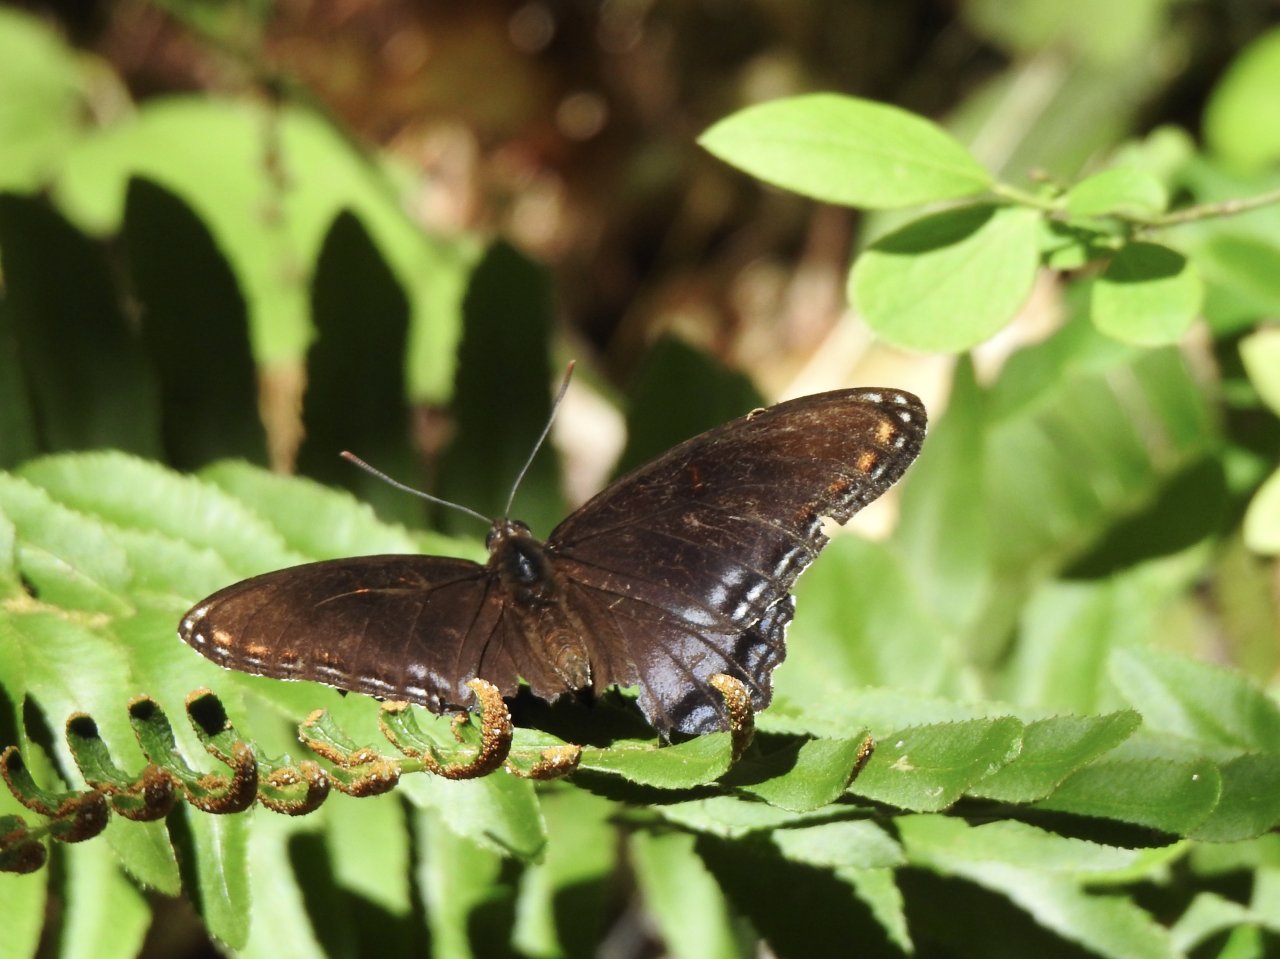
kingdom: Animalia
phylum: Arthropoda
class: Insecta
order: Lepidoptera
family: Nymphalidae
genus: Limenitis
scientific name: Limenitis arthemis
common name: Red-spotted Admiral
